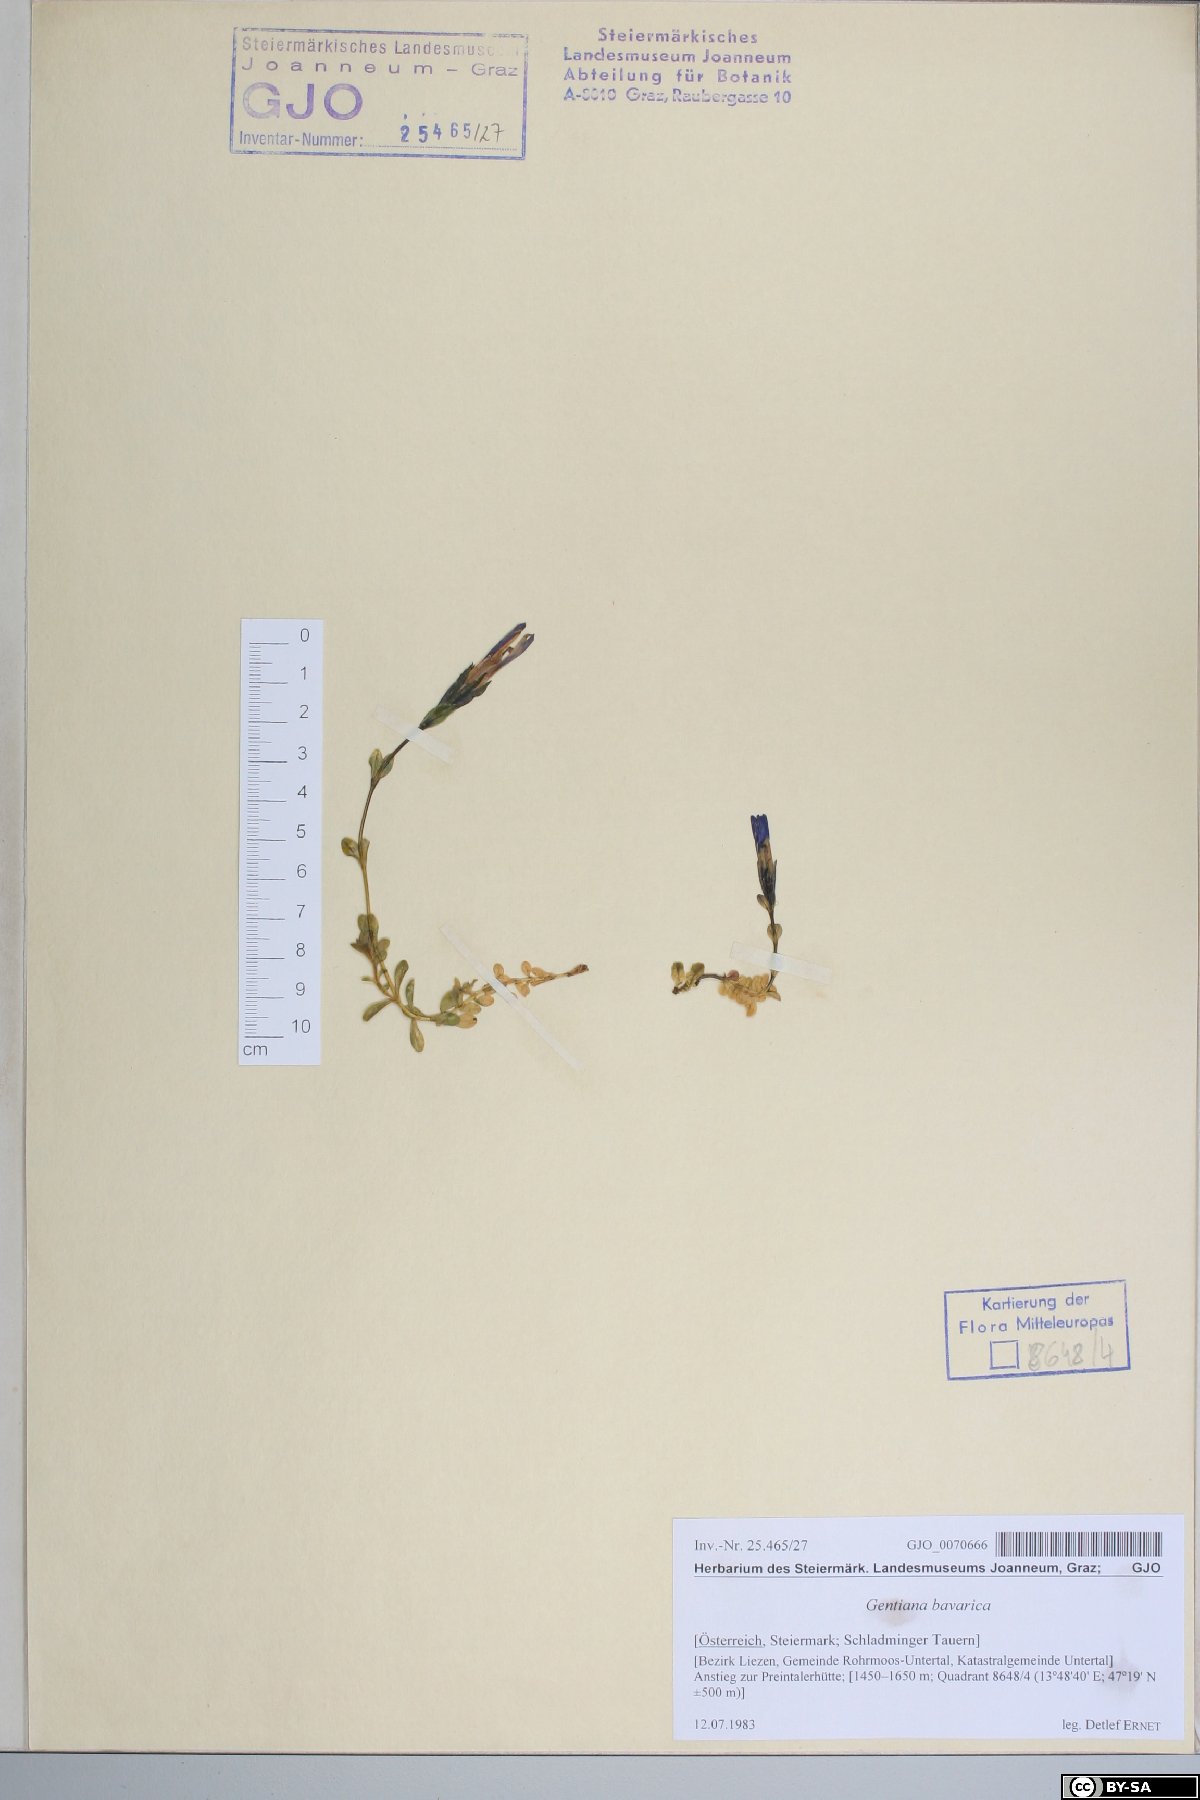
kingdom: Plantae
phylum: Tracheophyta
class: Magnoliopsida
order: Gentianales
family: Gentianaceae
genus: Gentiana
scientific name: Gentiana bavarica
